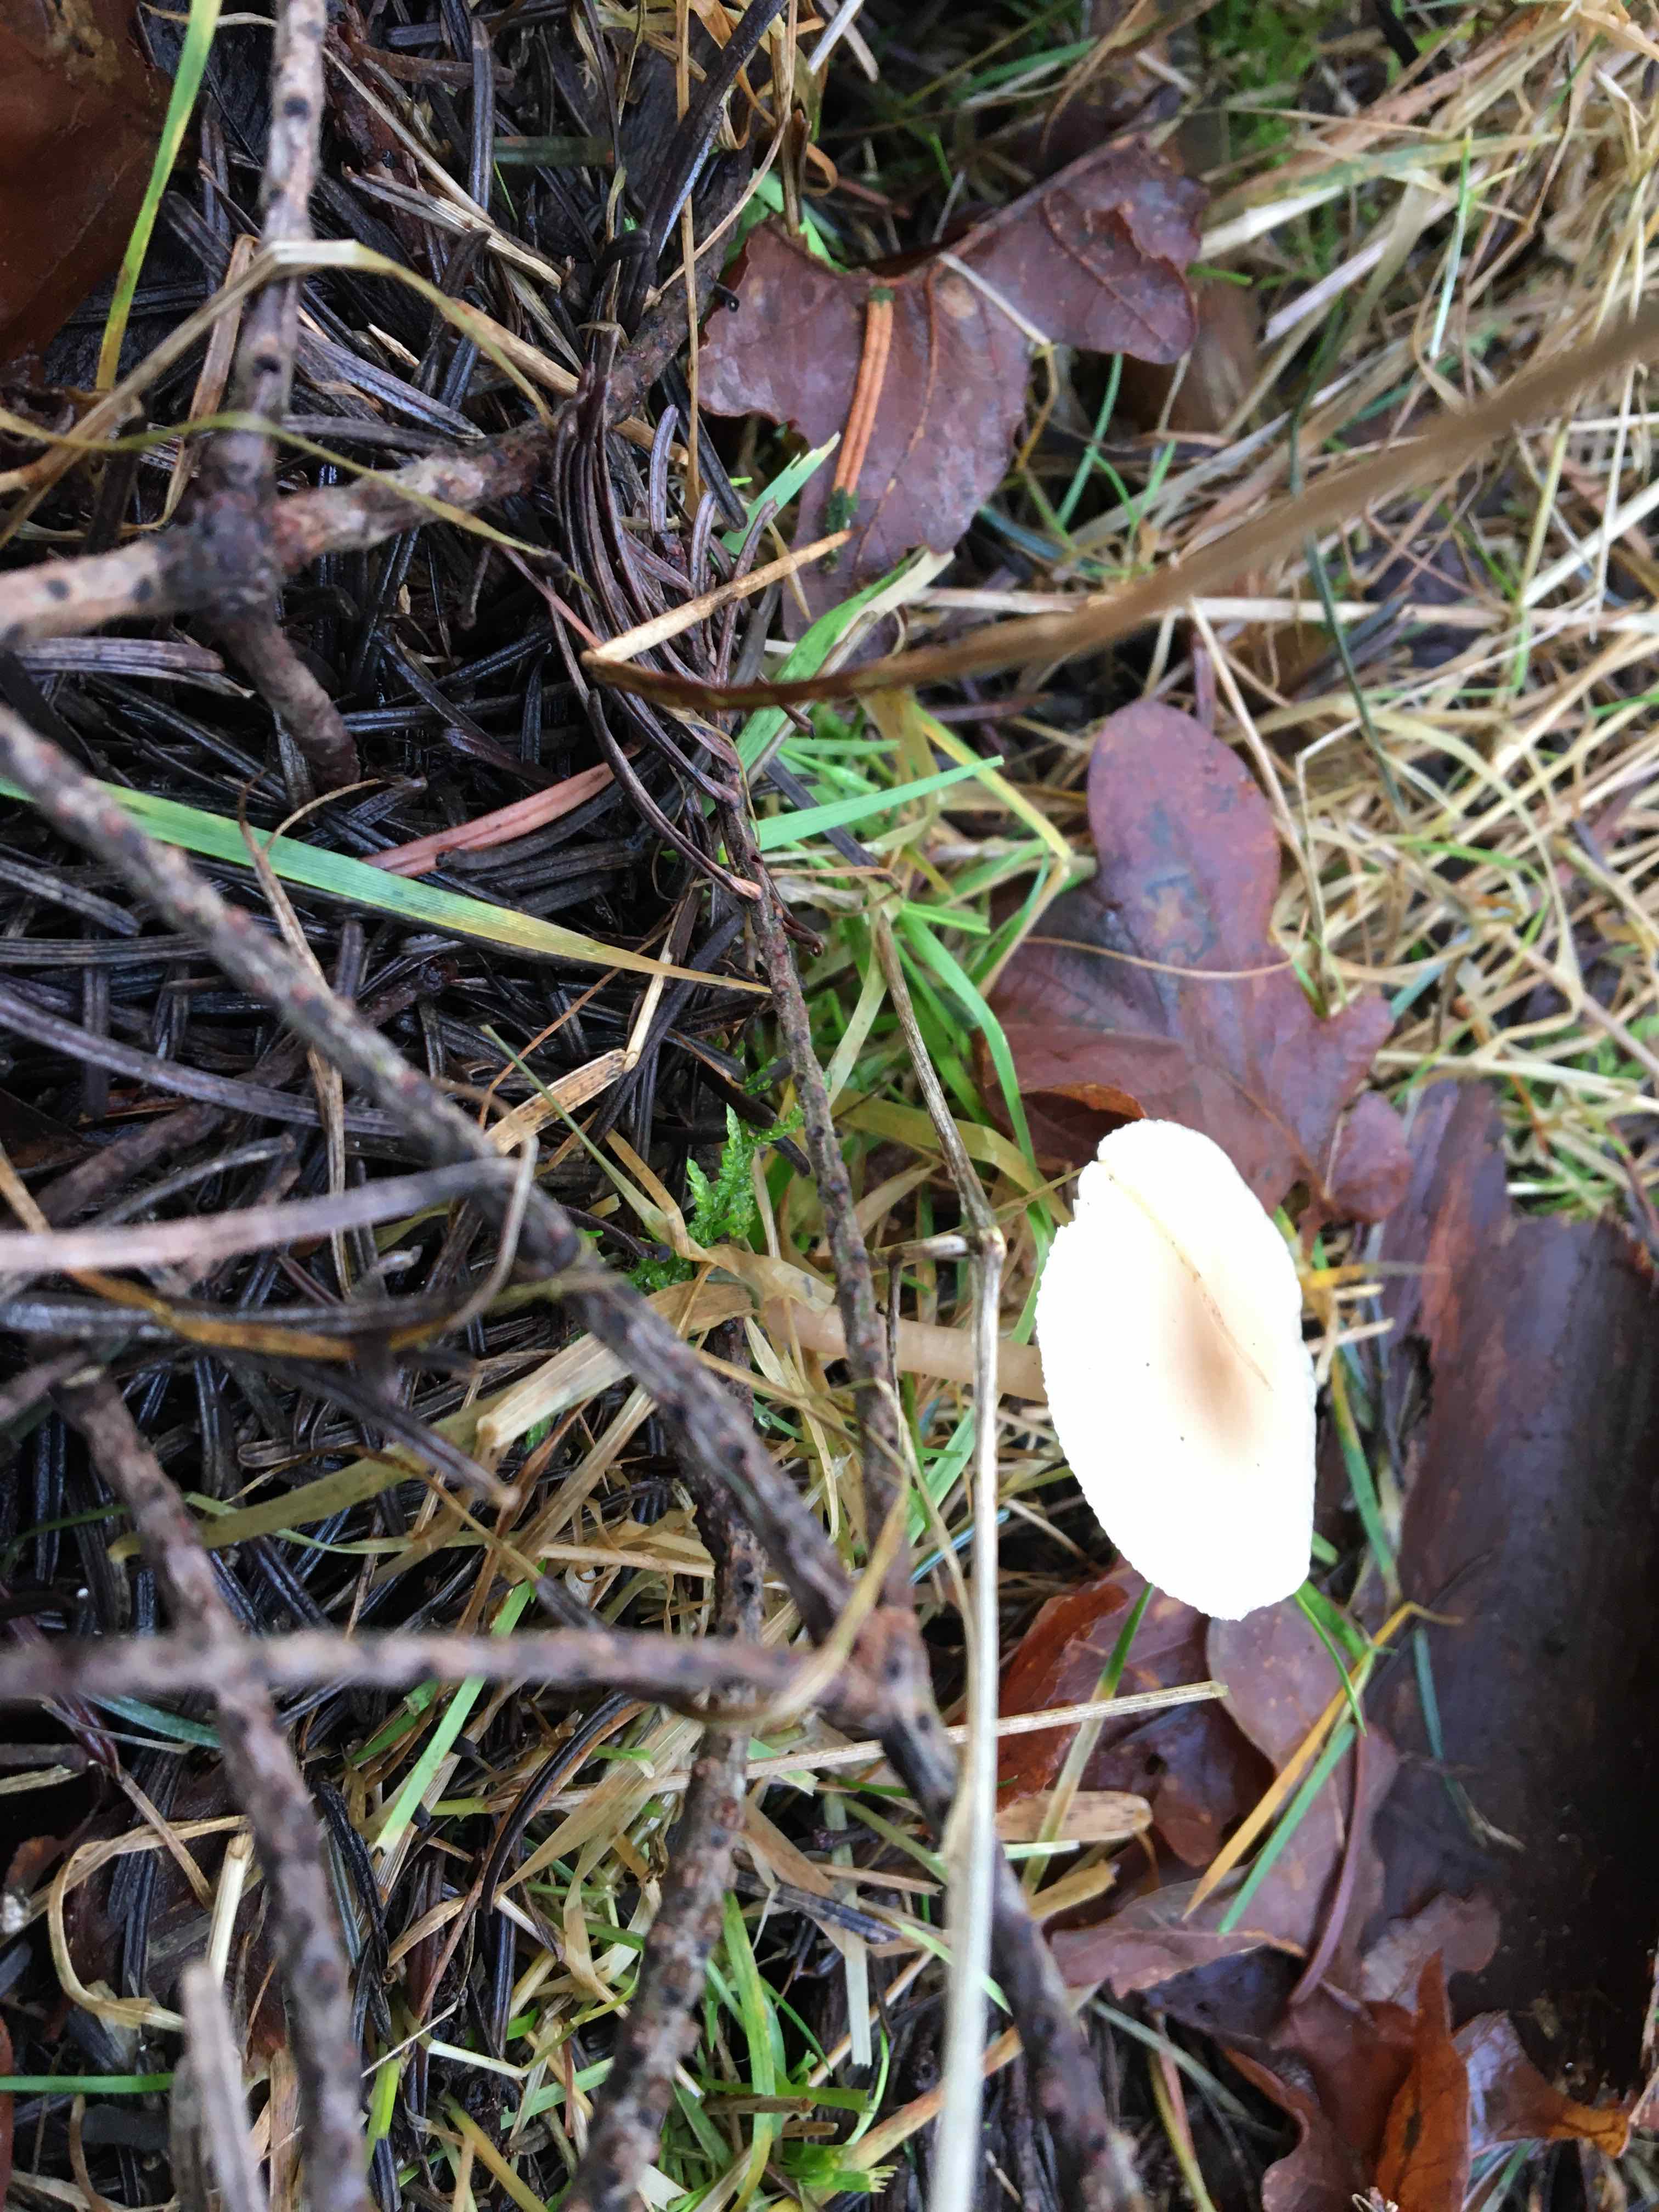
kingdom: Fungi
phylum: Basidiomycota
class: Agaricomycetes
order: Agaricales
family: Tricholomataceae
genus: Clitocybe
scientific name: Clitocybe fragrans
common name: vellugtende tragthat
